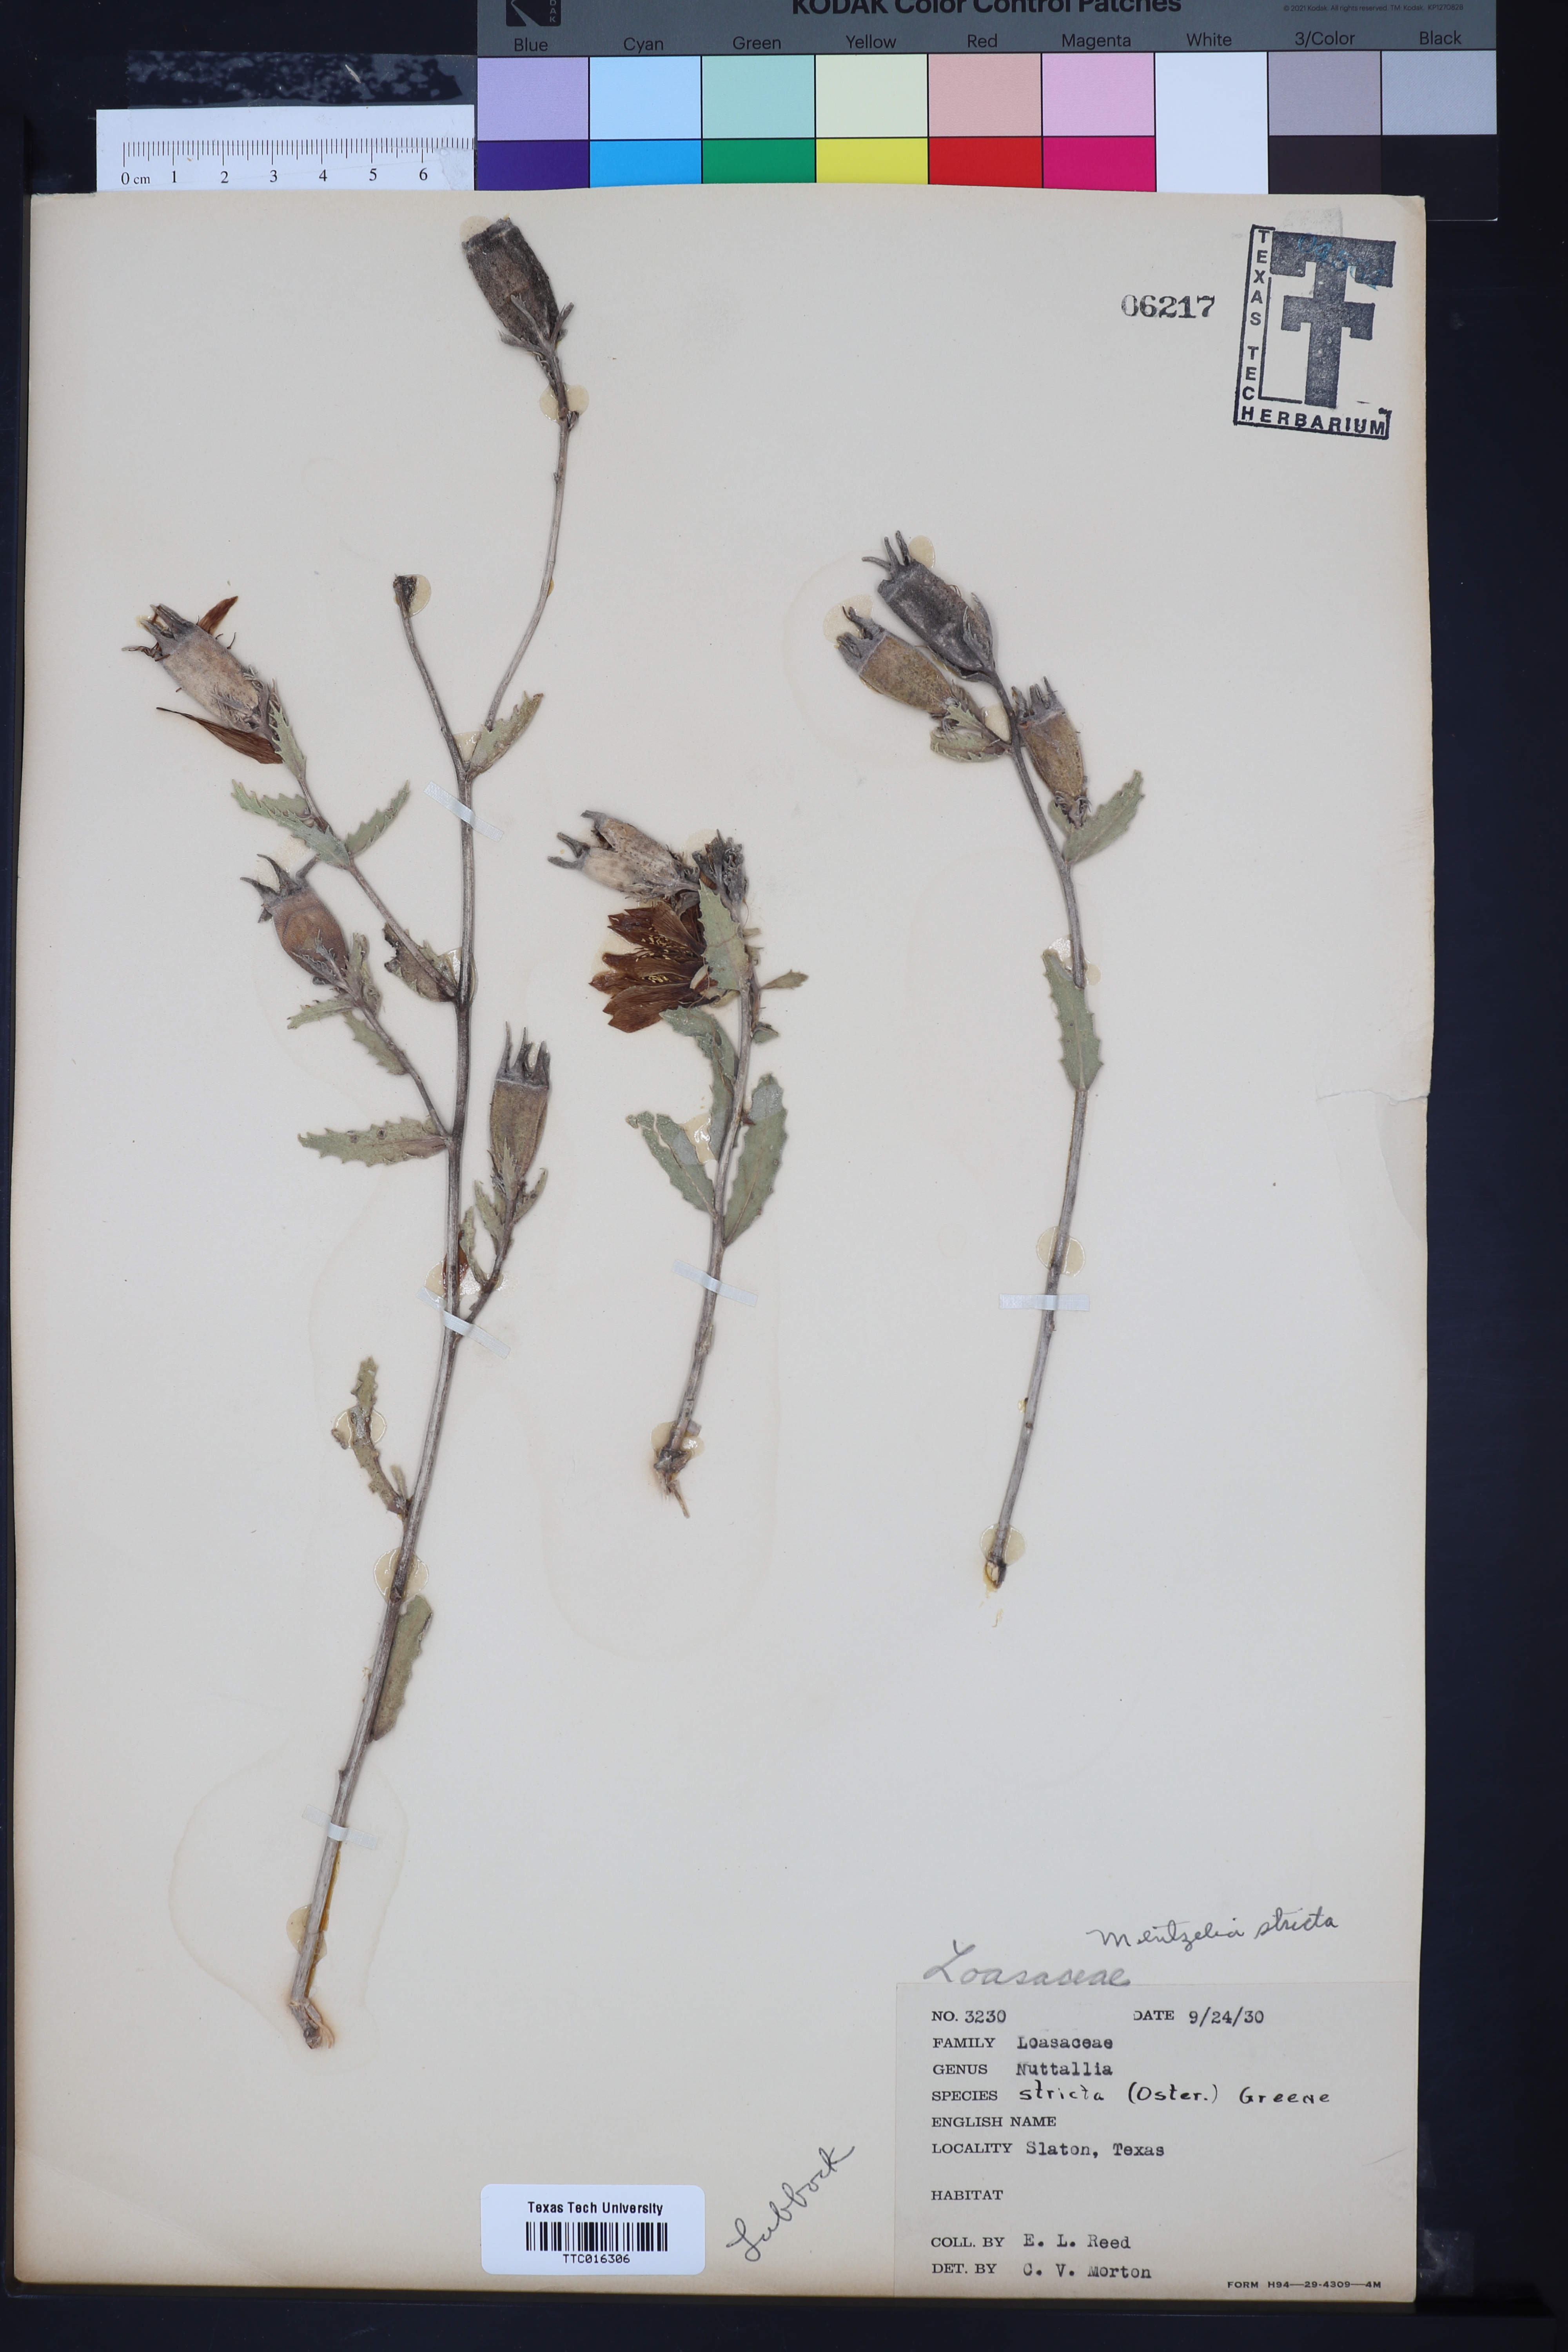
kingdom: Plantae
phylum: Tracheophyta
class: Magnoliopsida
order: Cornales
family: Loasaceae
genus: Mentzelia
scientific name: Mentzelia nuda
